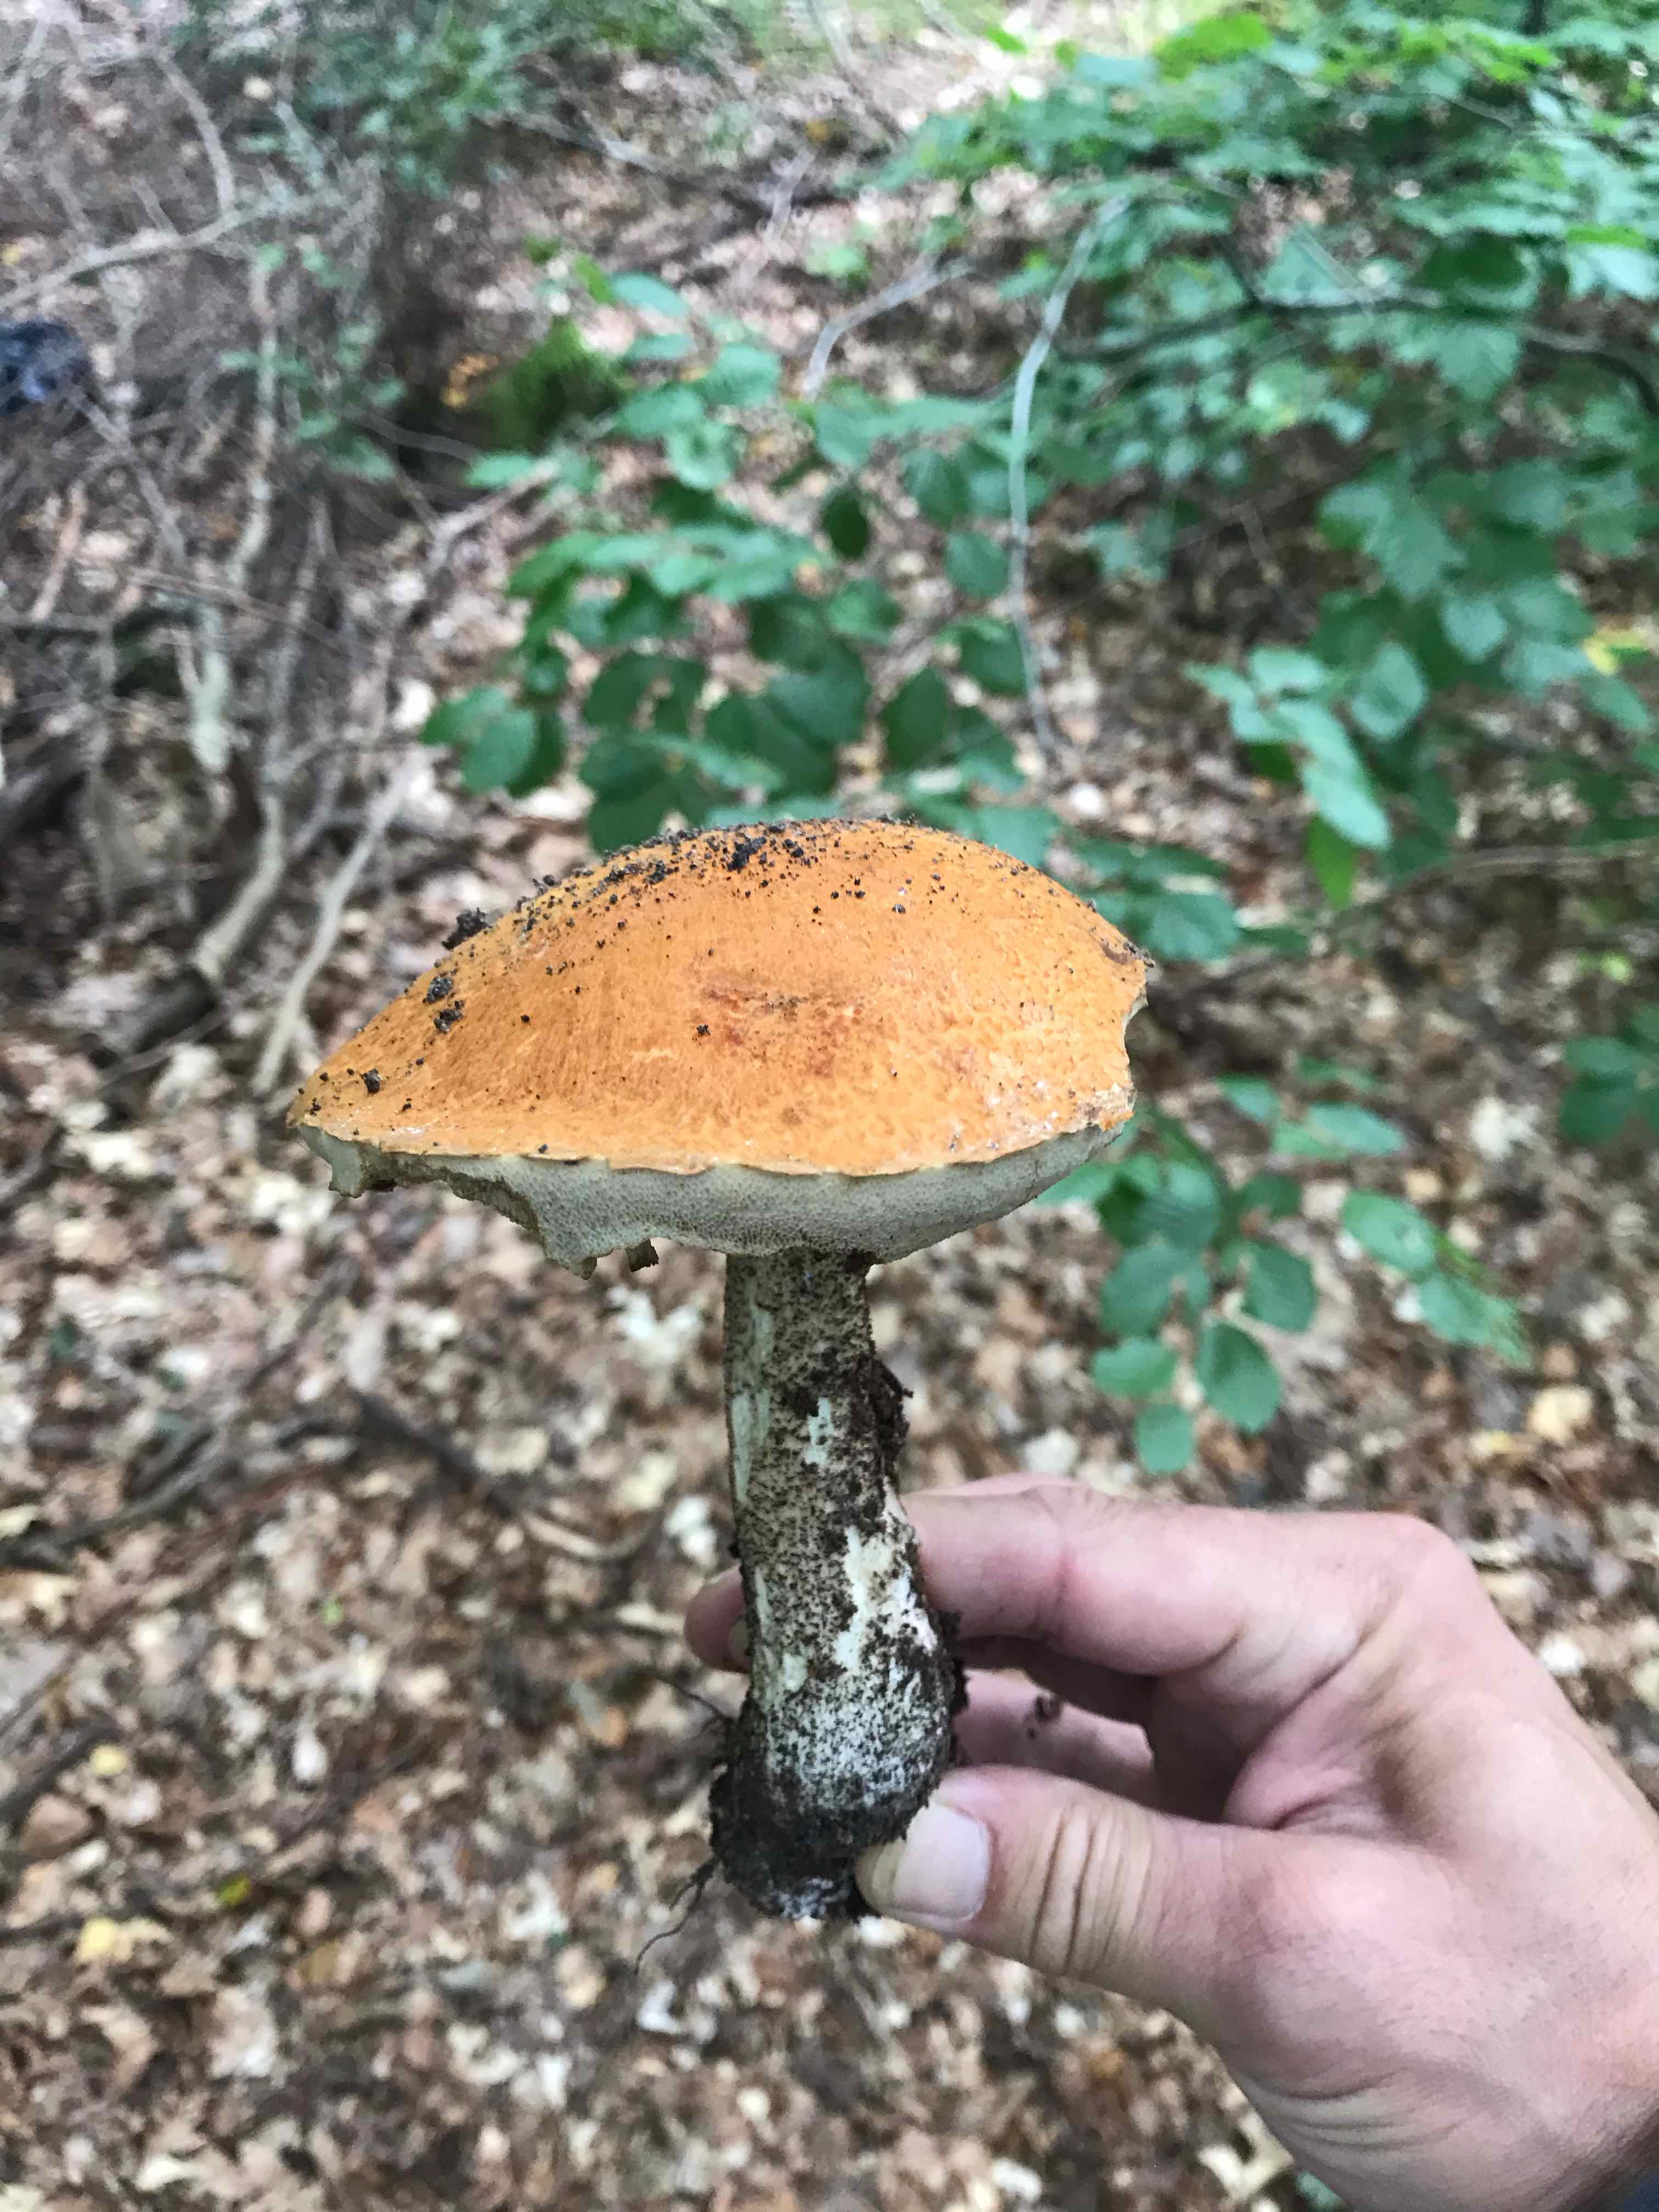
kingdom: Fungi
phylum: Basidiomycota
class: Agaricomycetes
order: Boletales
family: Boletaceae
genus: Leccinum
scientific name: Leccinum versipelle
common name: orange skælrørhat
